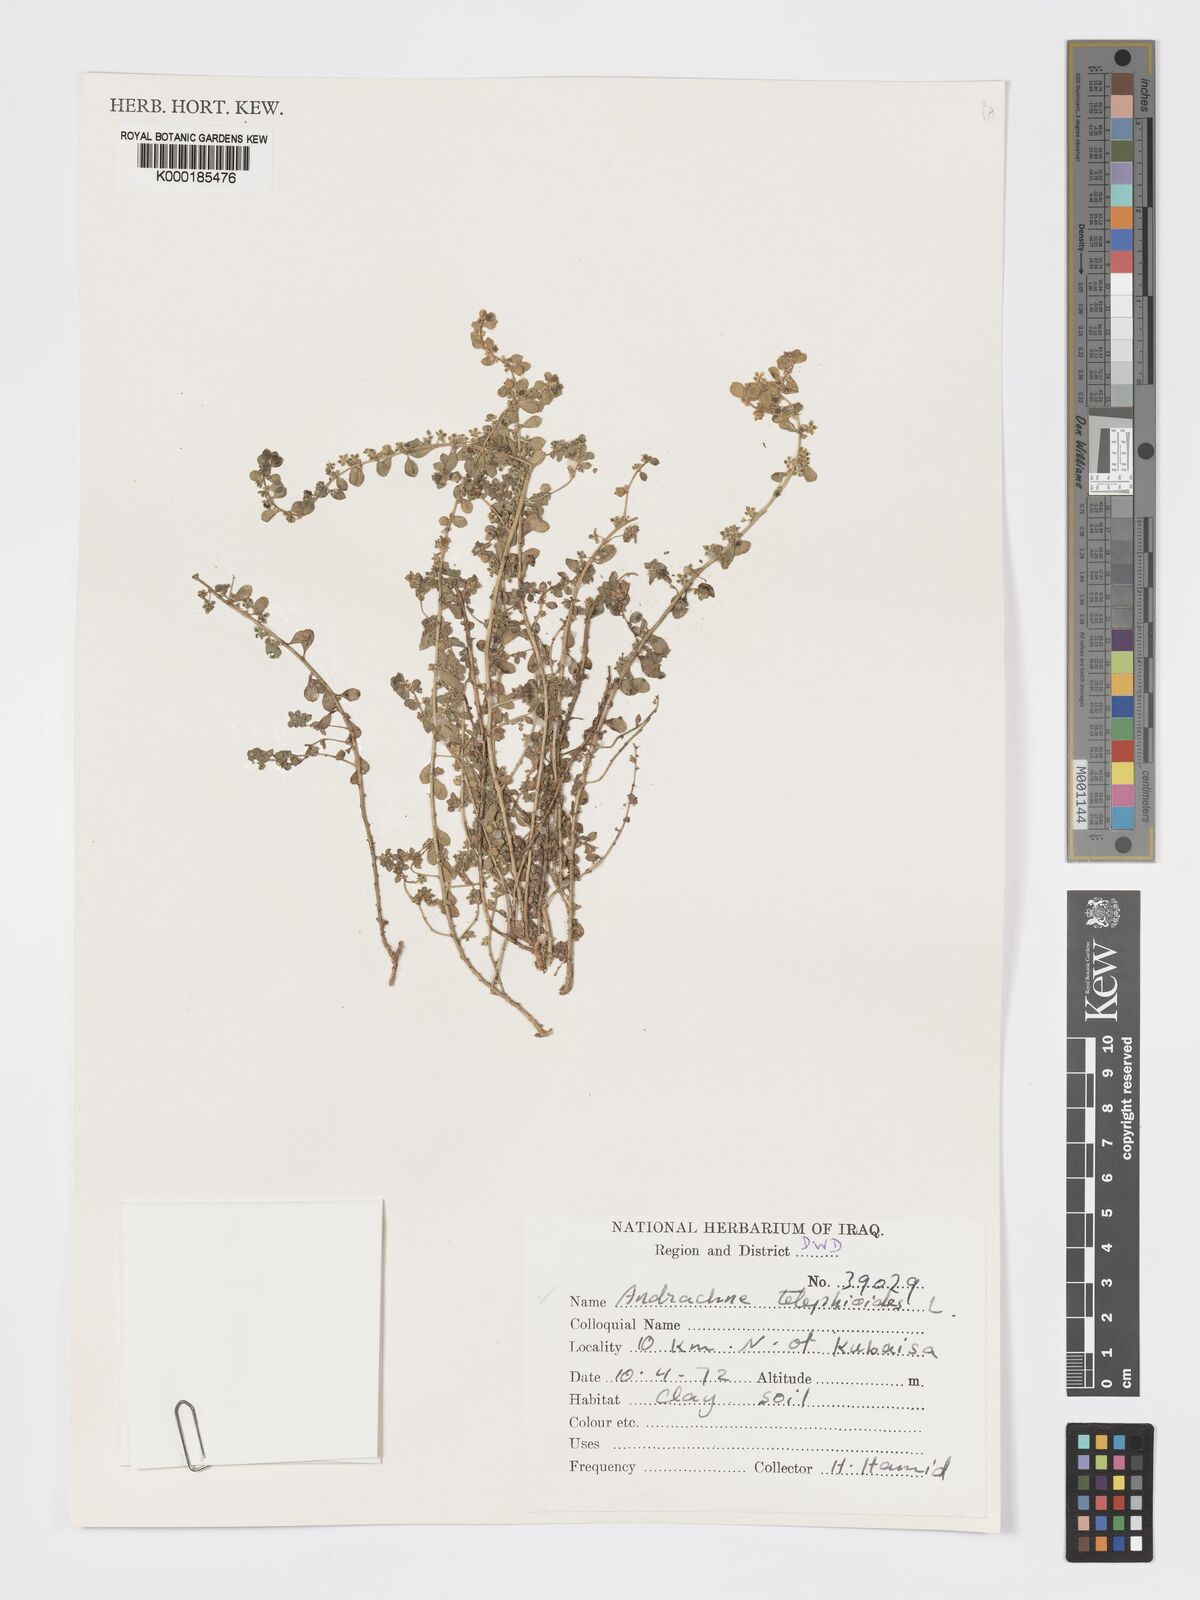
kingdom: Plantae
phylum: Tracheophyta
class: Magnoliopsida
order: Malpighiales
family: Phyllanthaceae
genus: Andrachne
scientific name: Andrachne telephioides
